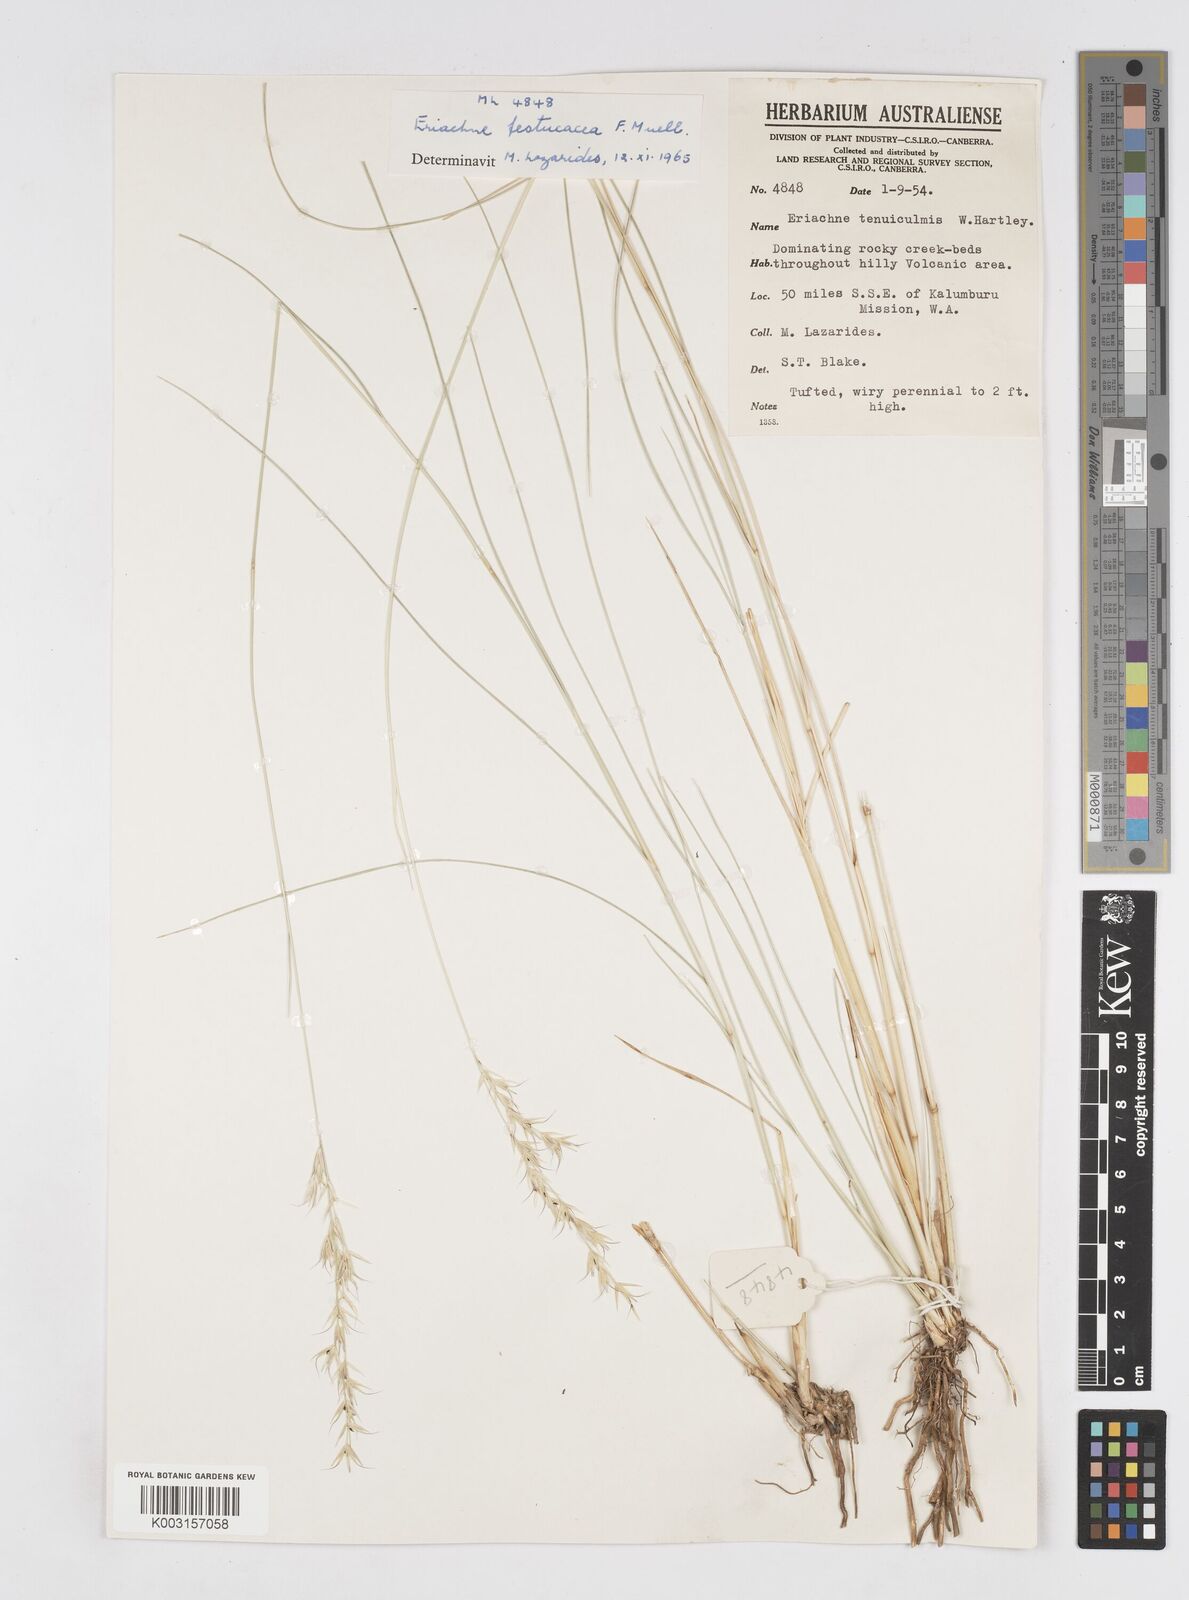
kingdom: Plantae
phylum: Tracheophyta
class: Liliopsida
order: Poales
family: Poaceae
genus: Eriachne
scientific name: Eriachne festucacea
